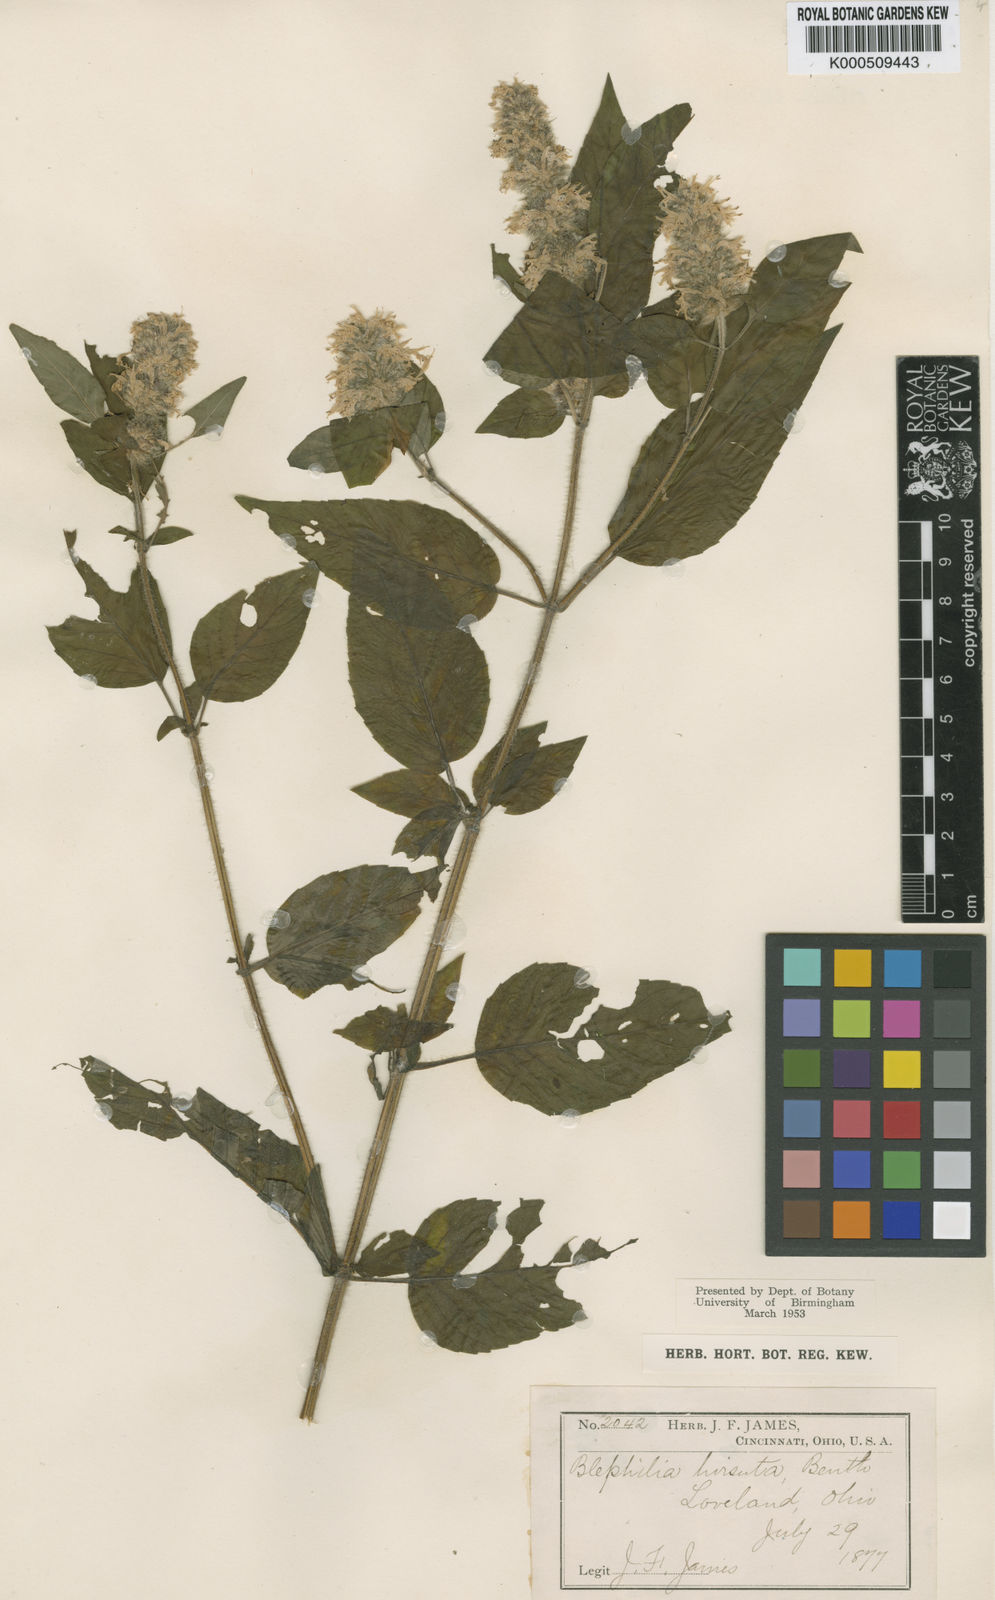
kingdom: Plantae
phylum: Tracheophyta
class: Magnoliopsida
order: Lamiales
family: Lamiaceae
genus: Blephilia
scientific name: Blephilia hirsuta
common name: Hairy blephilia
